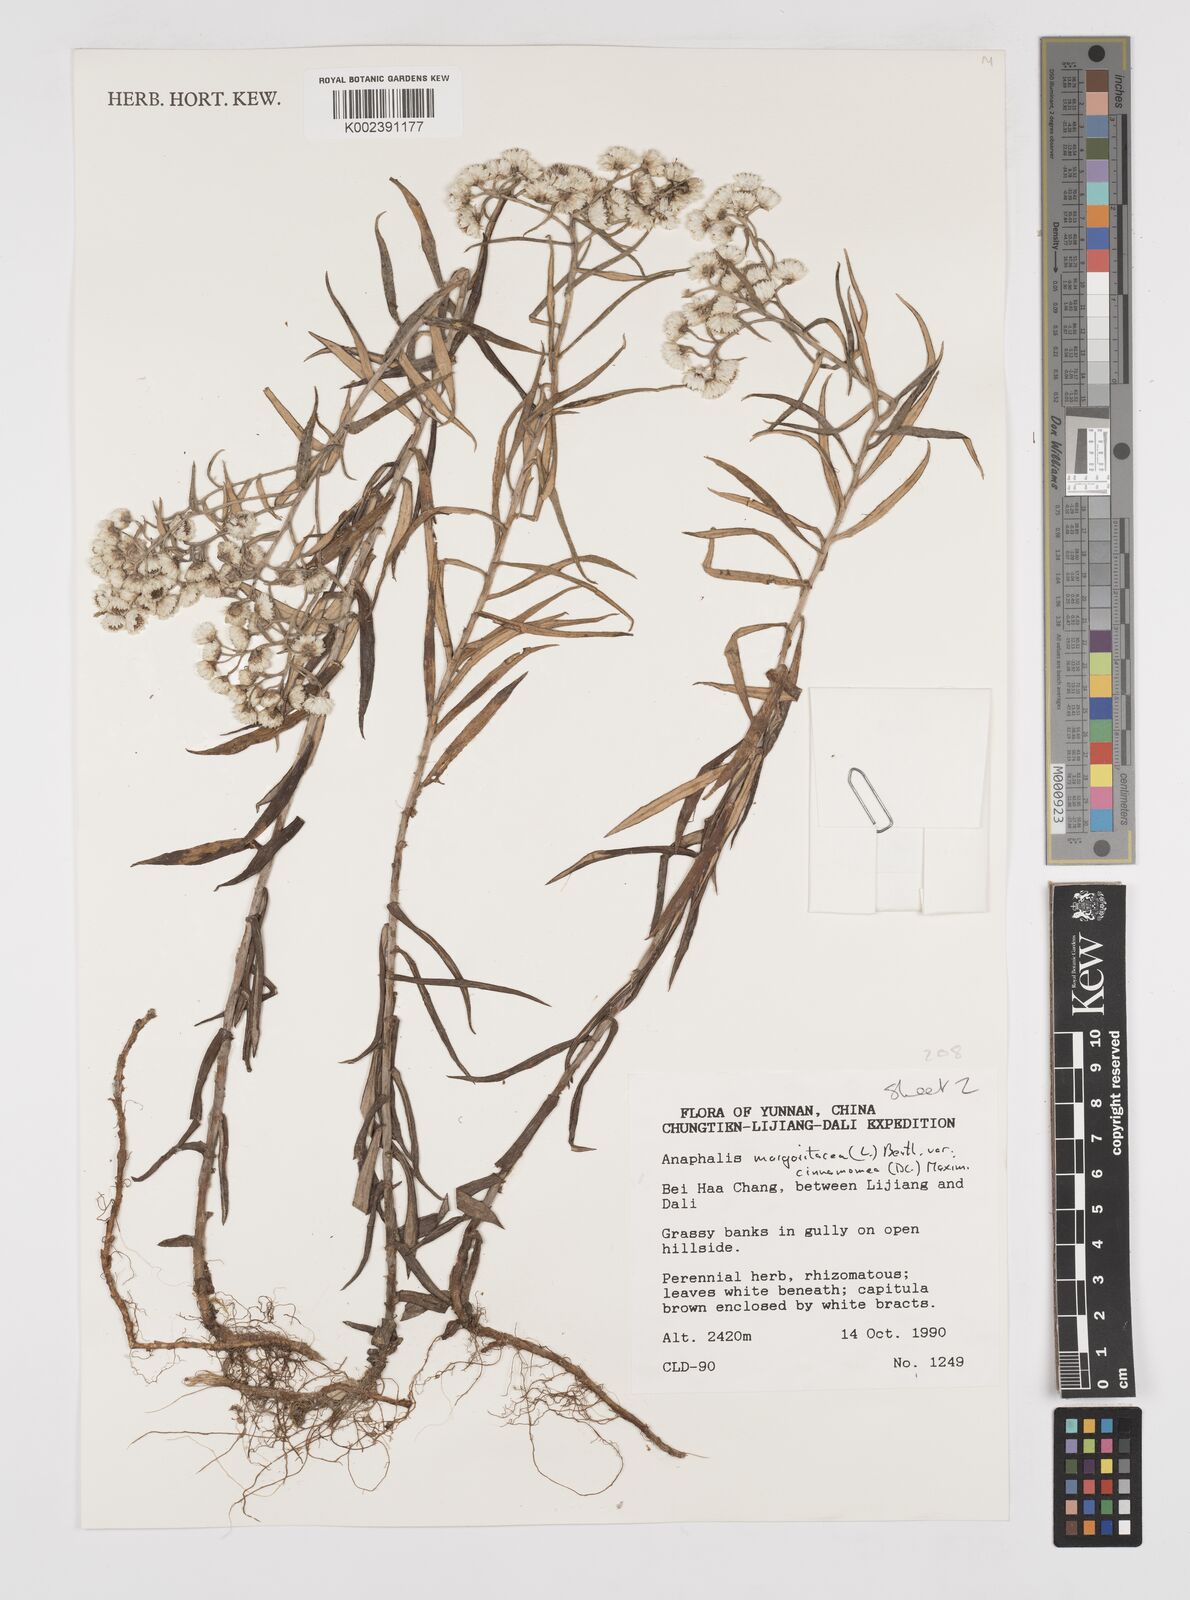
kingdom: Plantae
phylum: Tracheophyta
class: Magnoliopsida
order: Asterales
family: Asteraceae
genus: Anaphalis
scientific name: Anaphalis margaritacea
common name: Pearly everlasting
